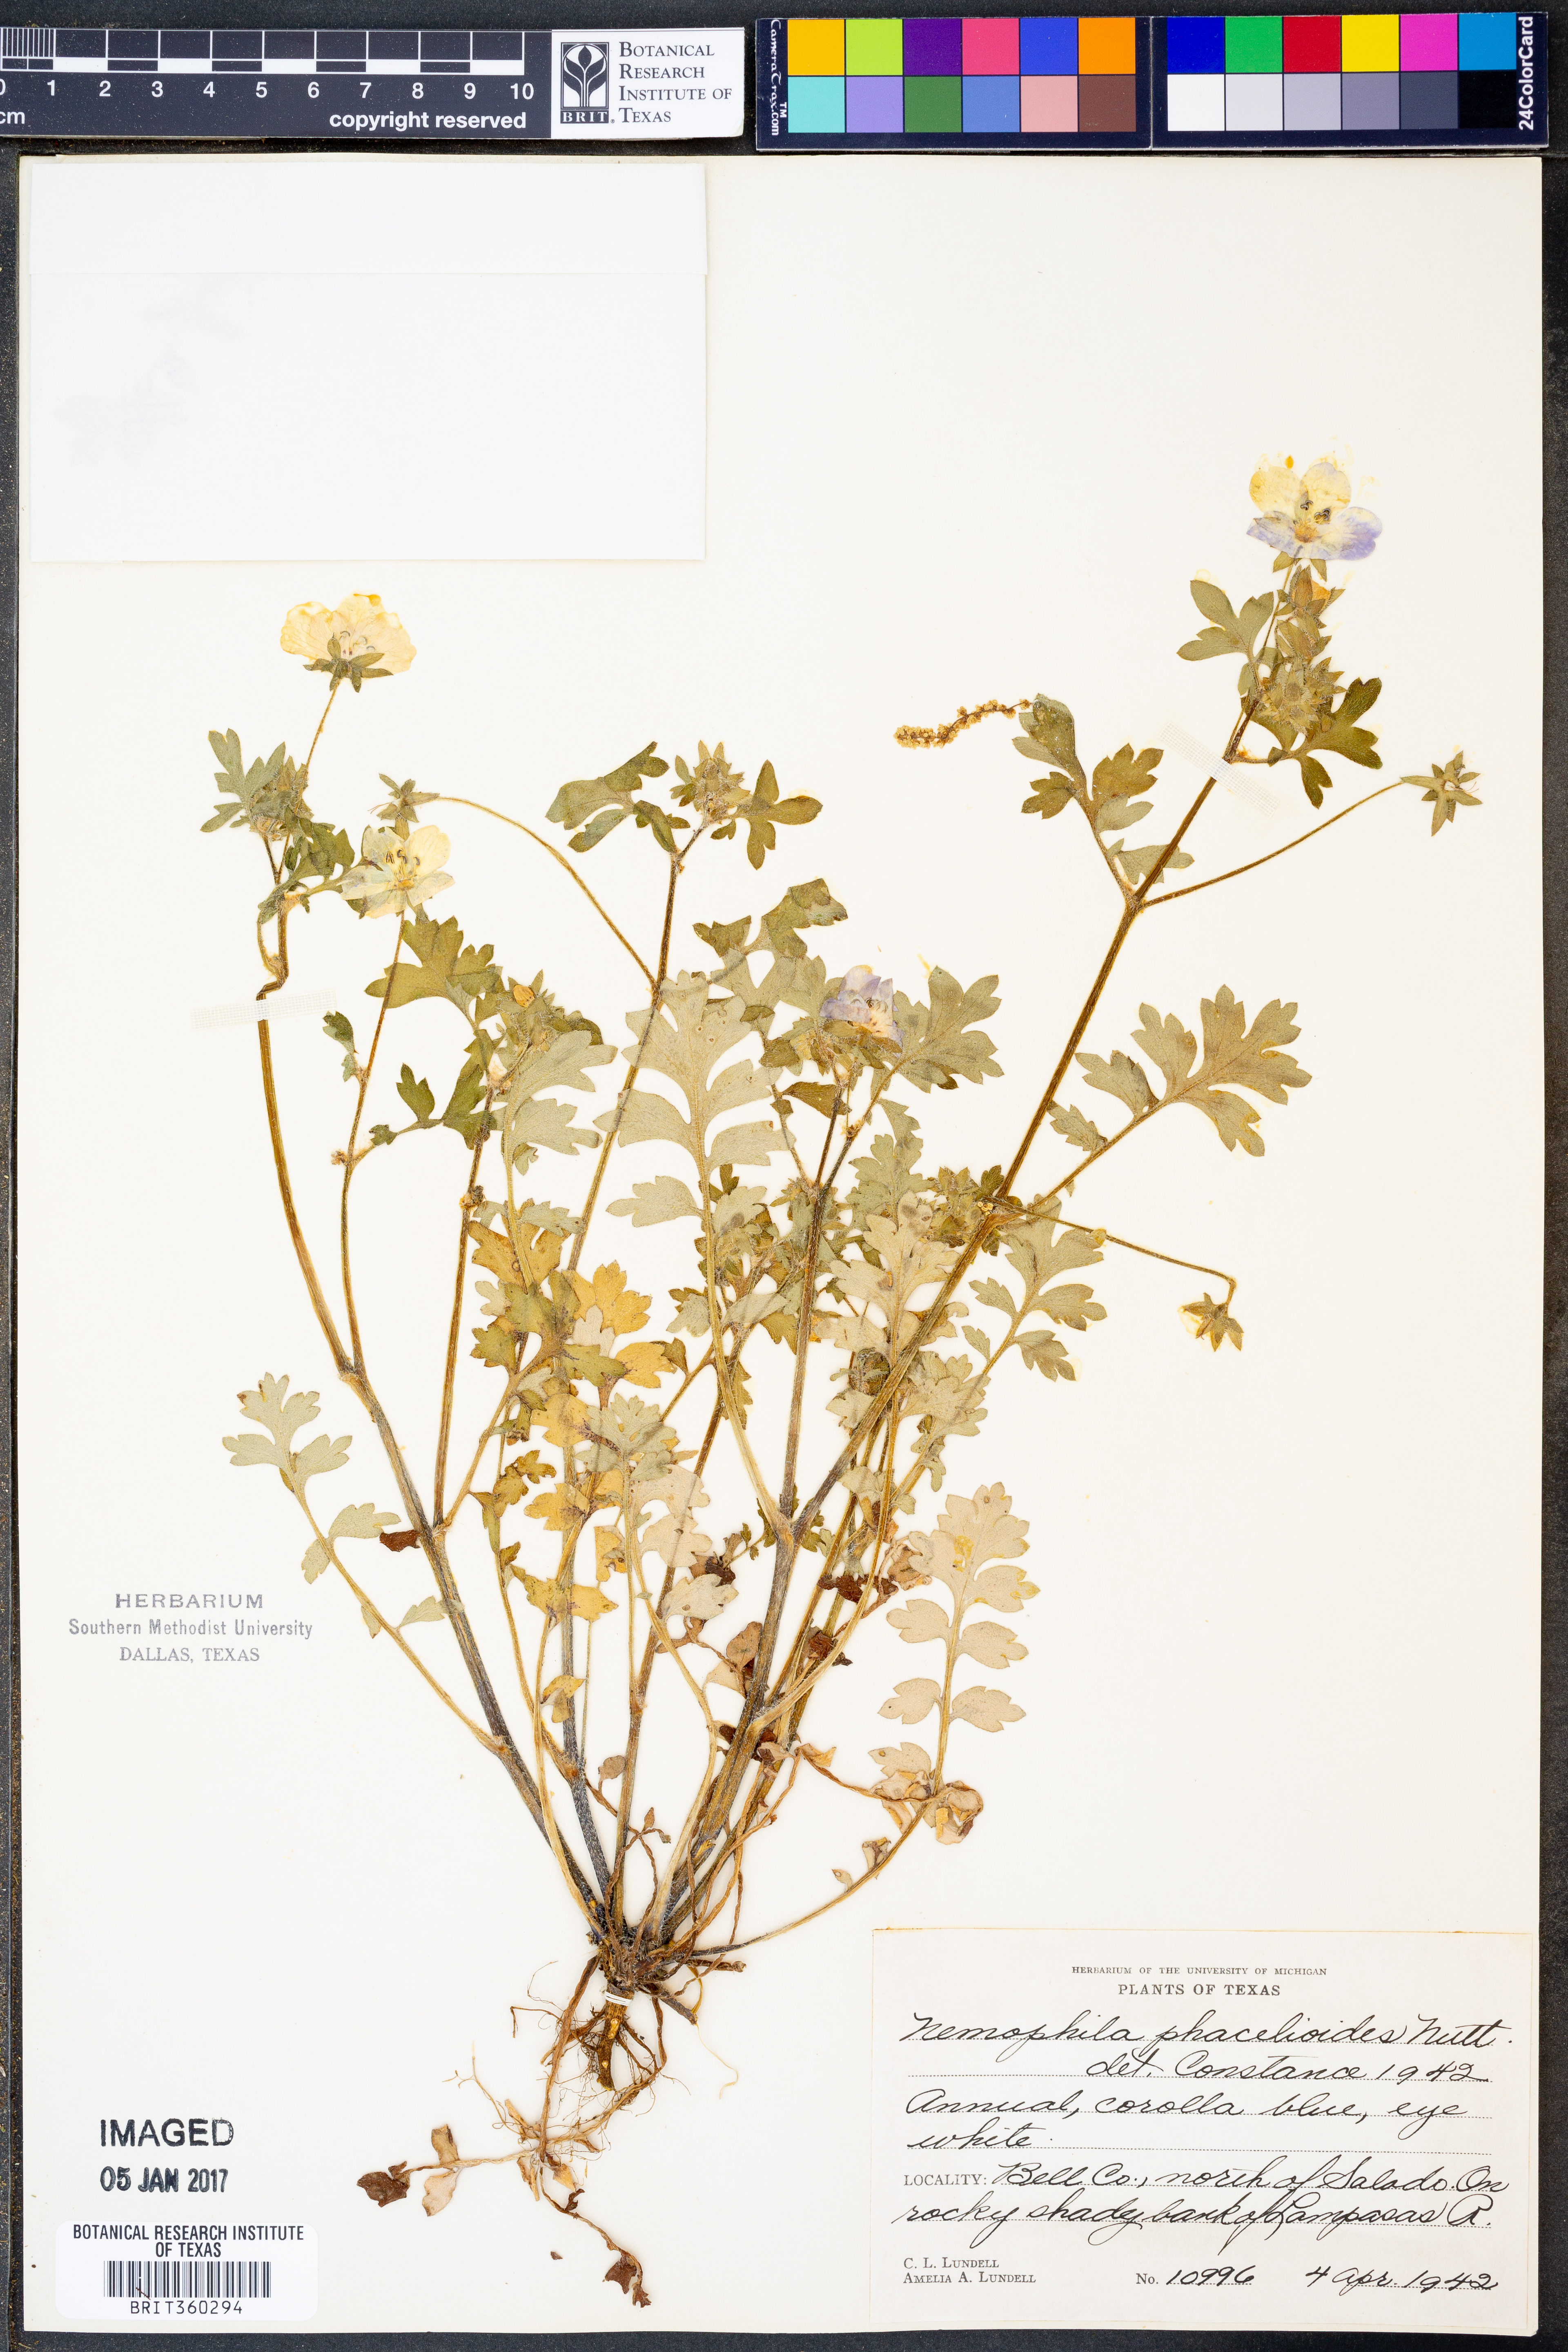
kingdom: Plantae
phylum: Tracheophyta
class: Magnoliopsida
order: Boraginales
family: Hydrophyllaceae
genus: Nemophila
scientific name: Nemophila phacelioides
